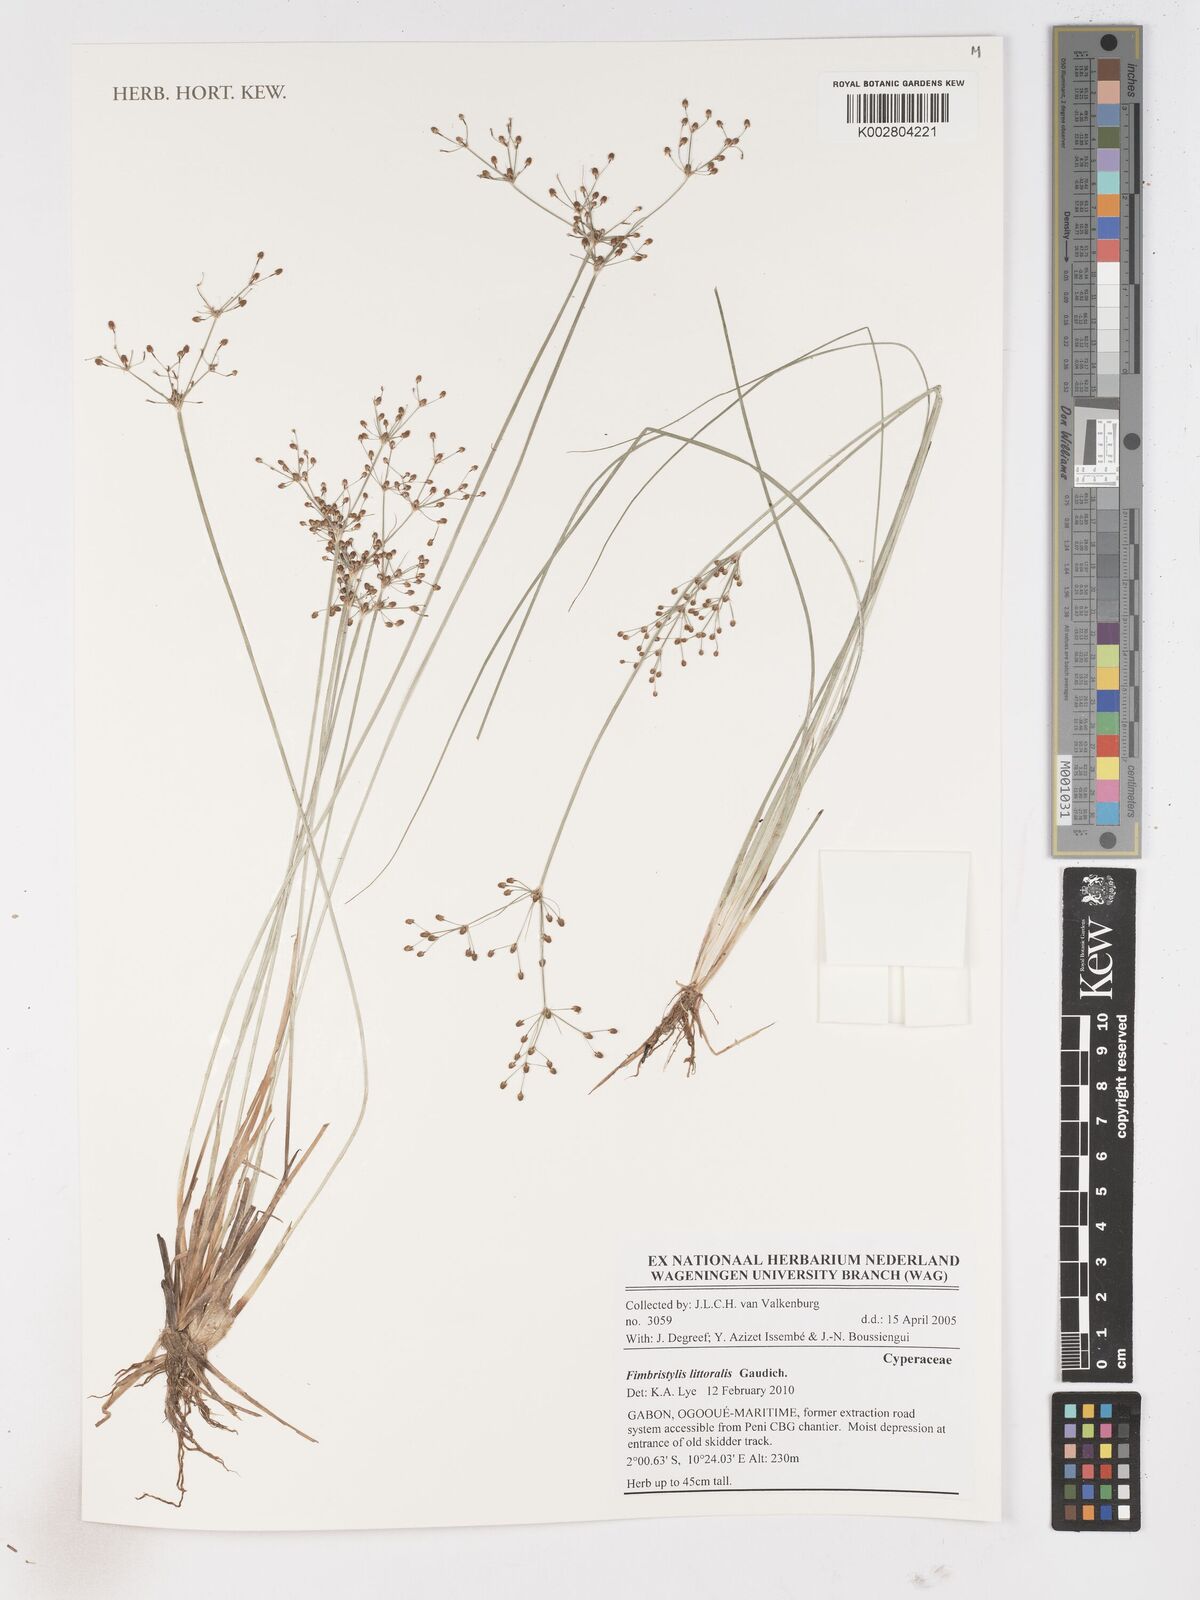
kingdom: Plantae
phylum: Tracheophyta
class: Liliopsida
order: Poales
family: Cyperaceae
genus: Fimbristylis
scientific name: Fimbristylis littoralis
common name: Fimbry
